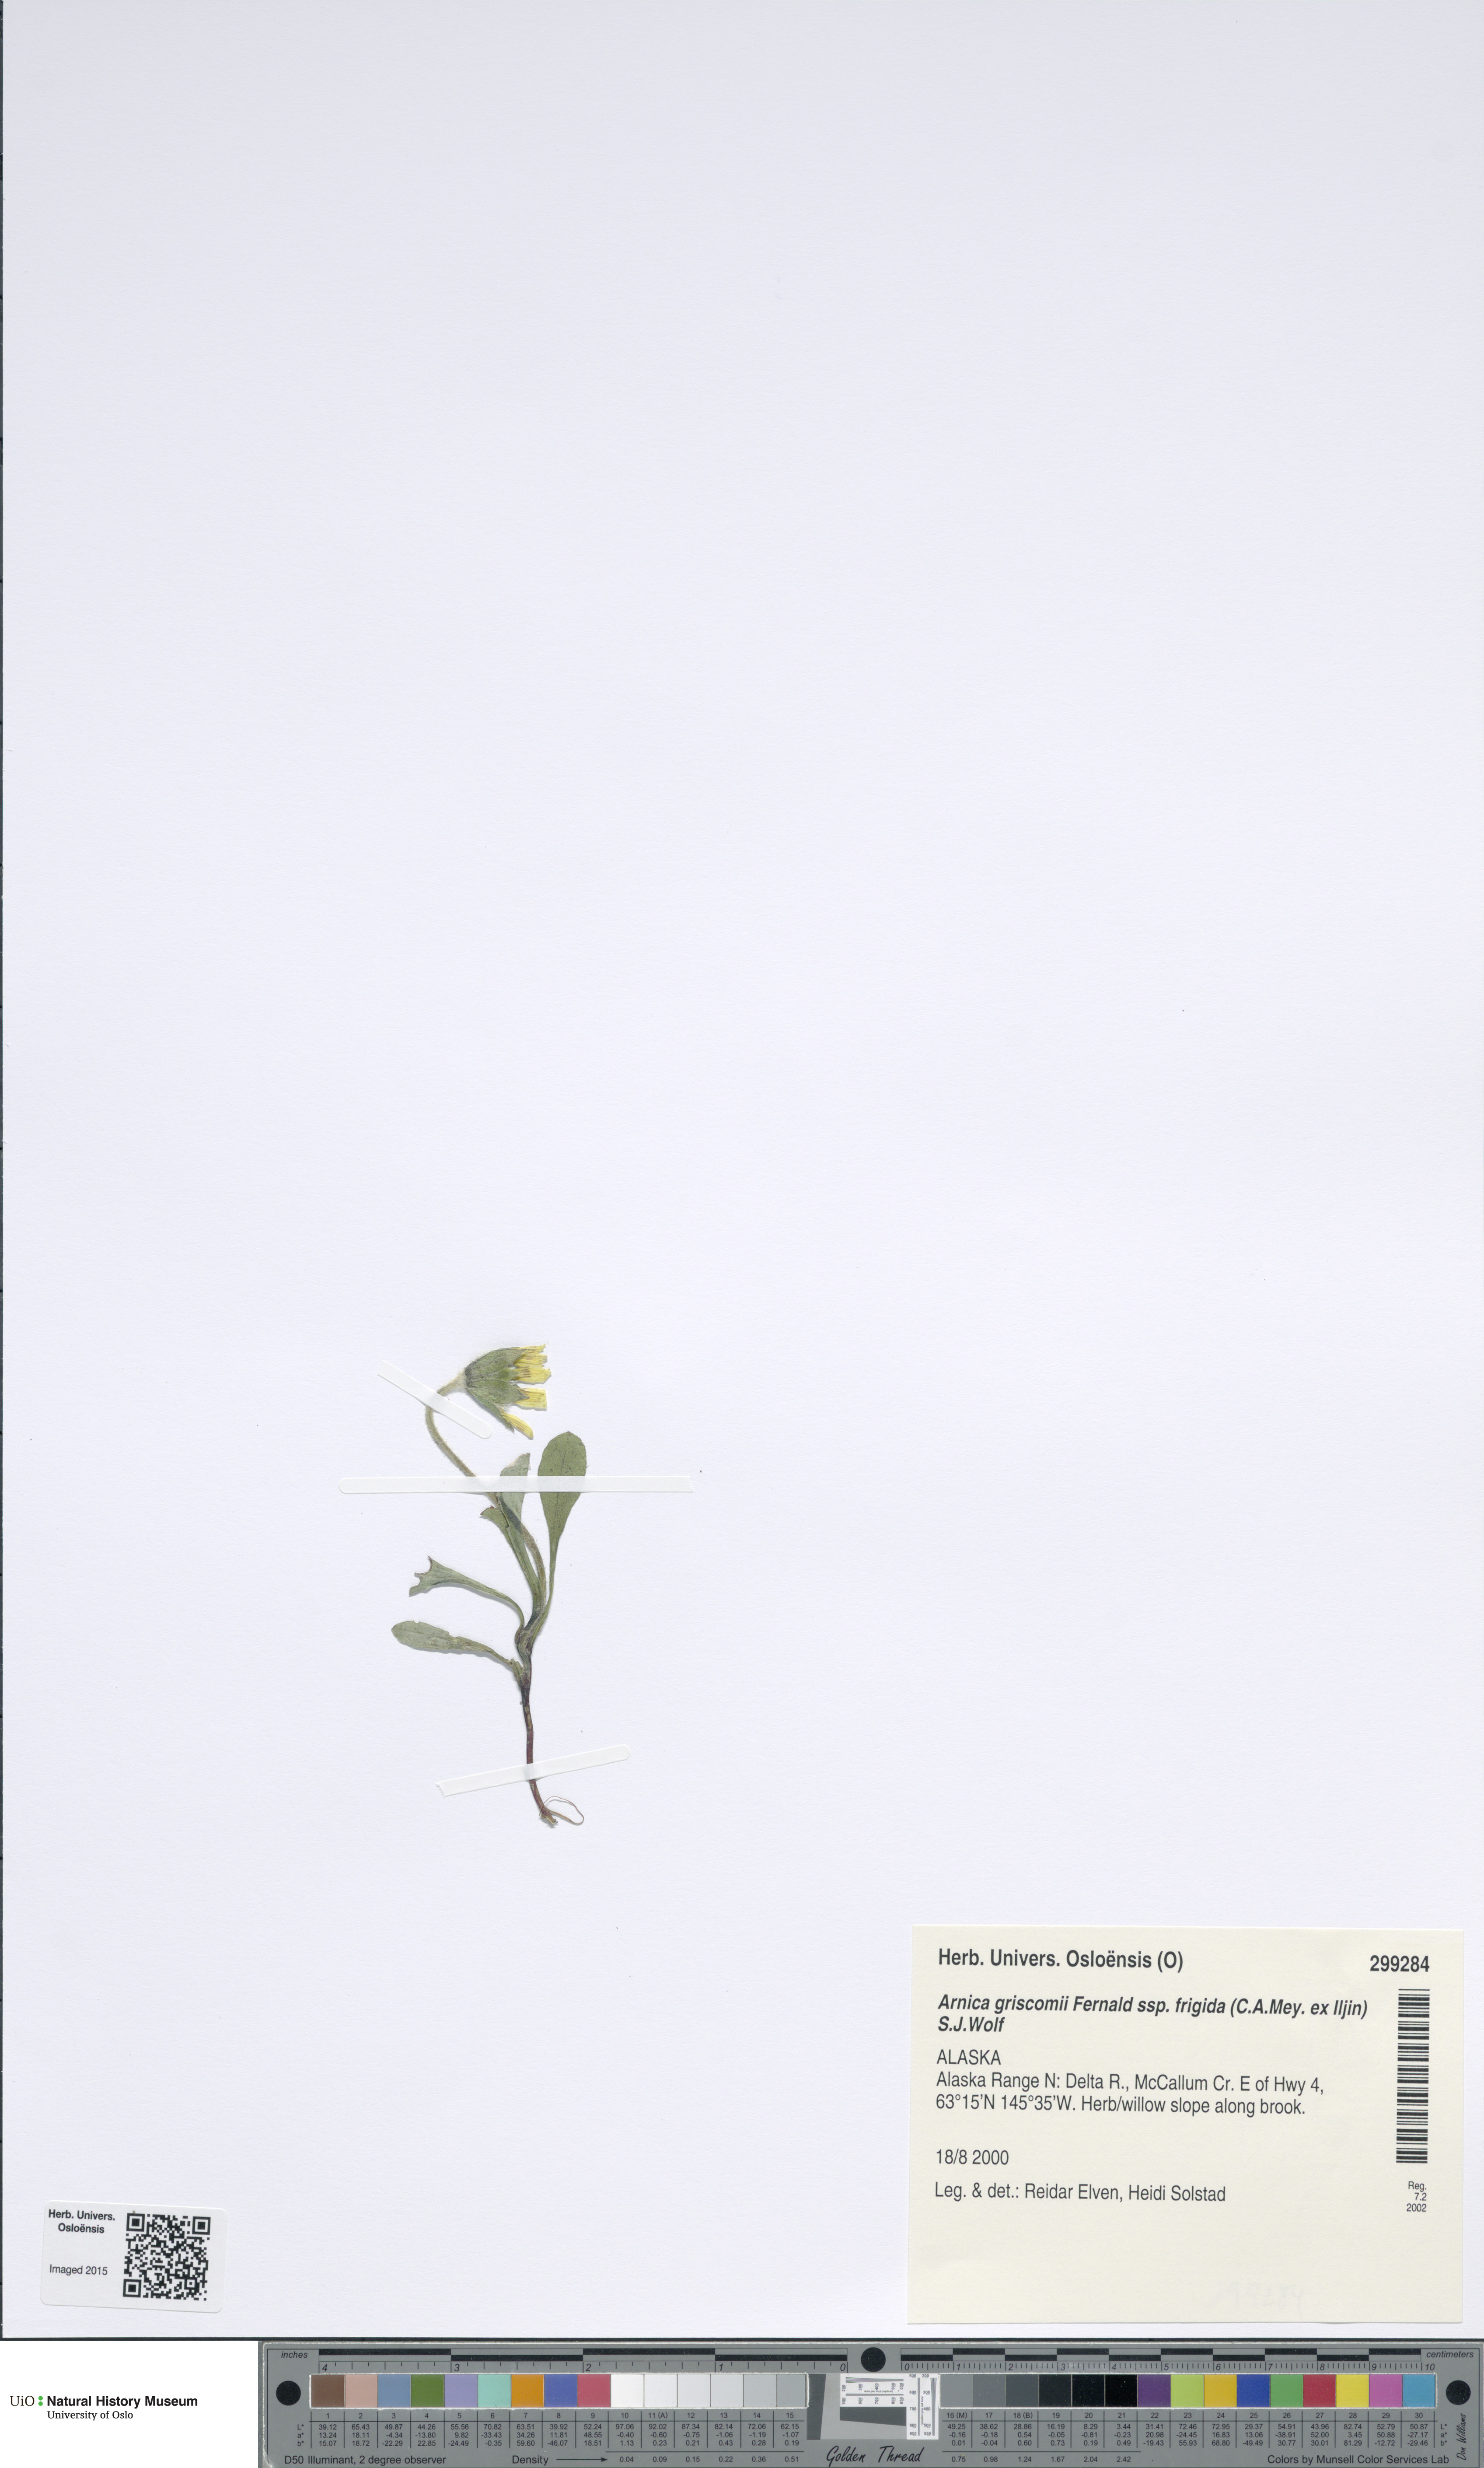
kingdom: Plantae
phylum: Tracheophyta
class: Magnoliopsida
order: Asterales
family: Asteraceae
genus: Arnica
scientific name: Arnica griscomii
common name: Snow arnica
